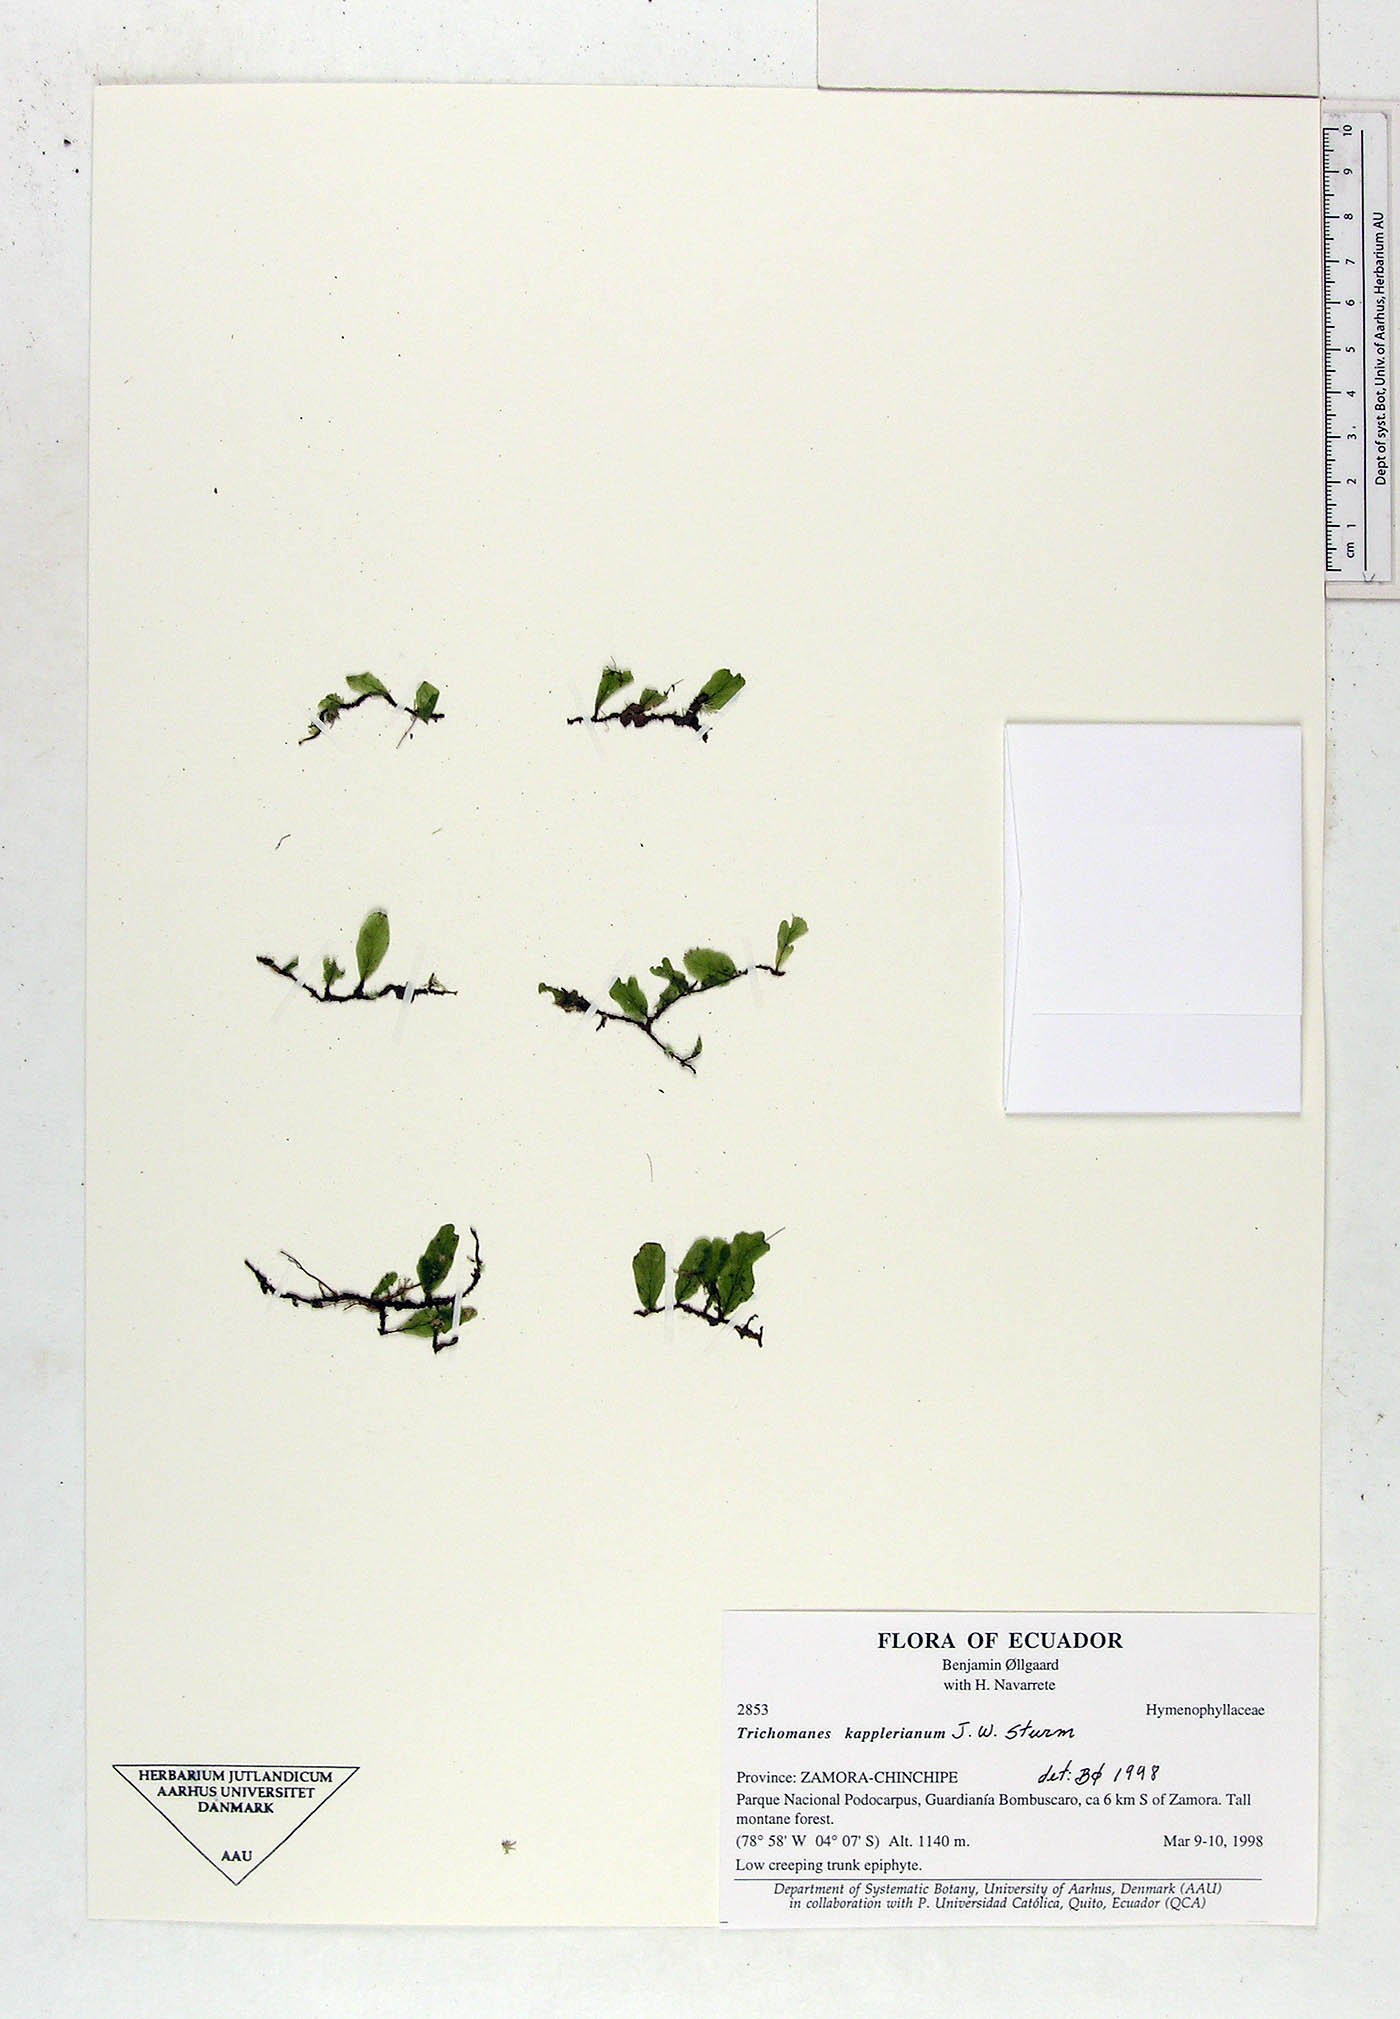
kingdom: Plantae
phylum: Tracheophyta
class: Polypodiopsida
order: Hymenophyllales
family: Hymenophyllaceae
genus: Didymoglossum
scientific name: Didymoglossum kapplerianum
